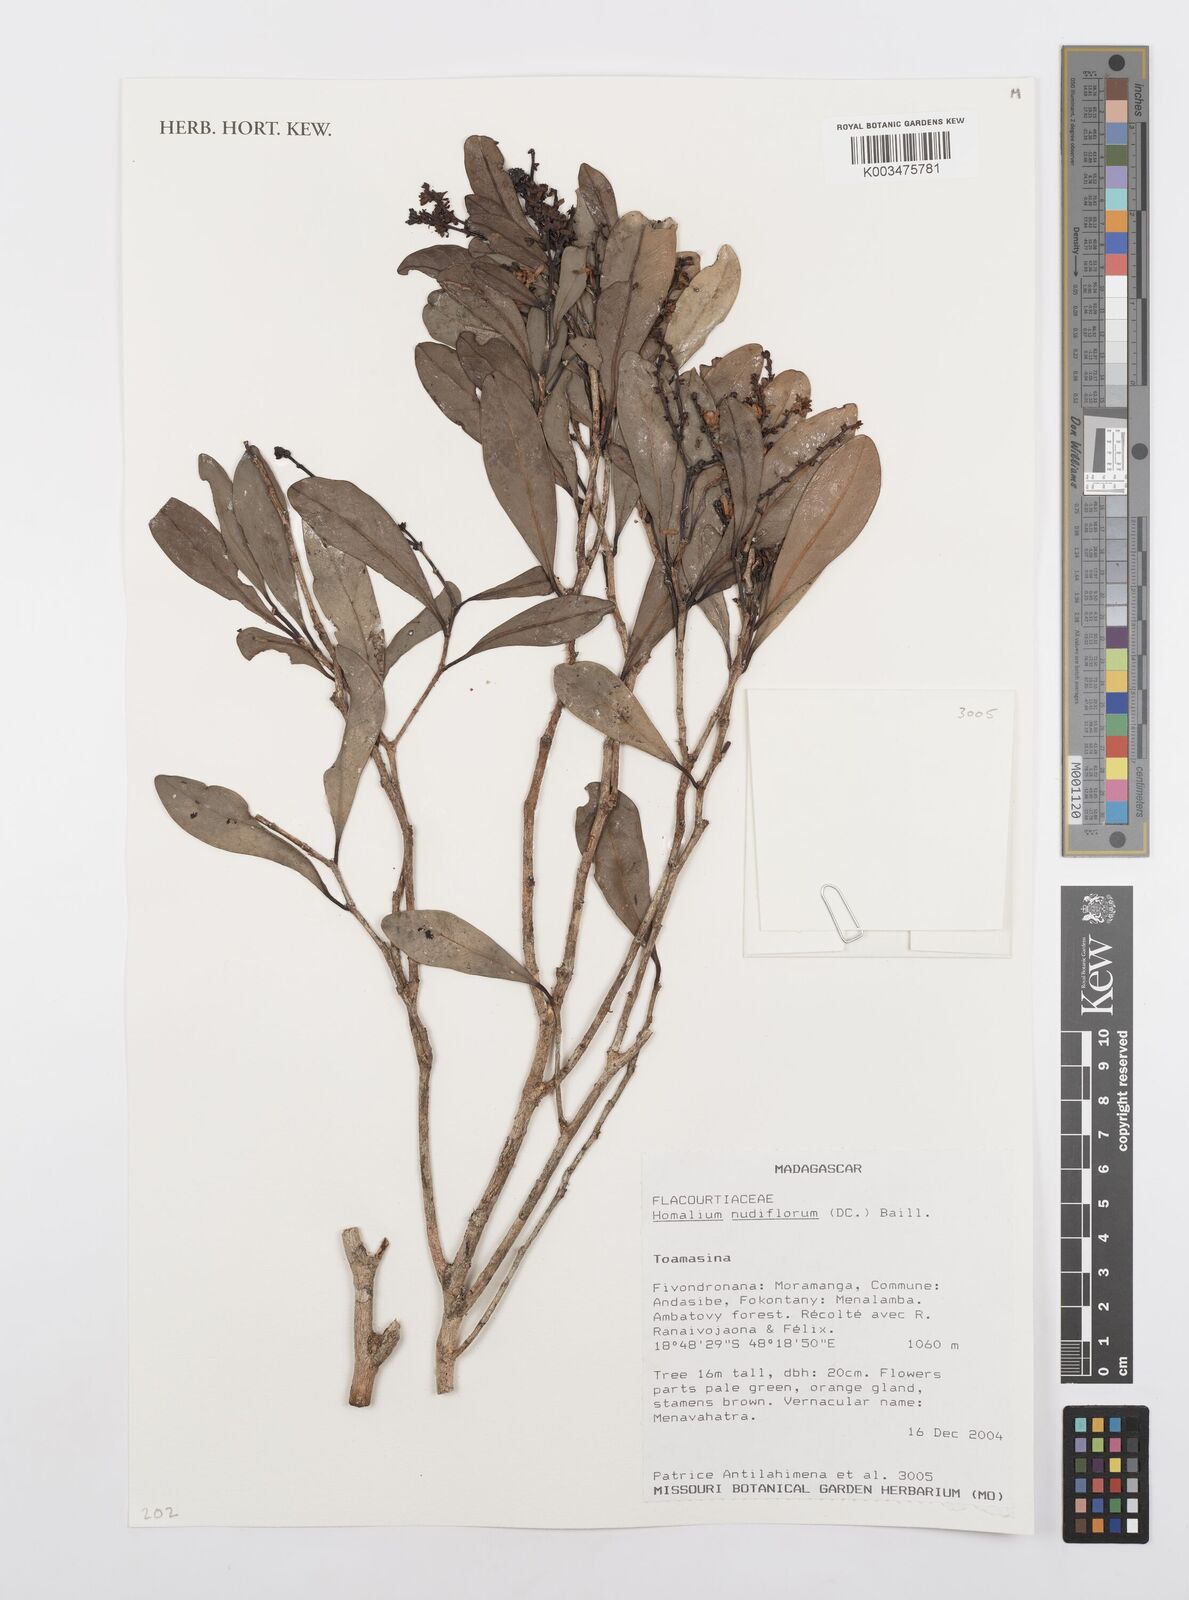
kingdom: Plantae
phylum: Tracheophyta
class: Magnoliopsida
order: Malpighiales
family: Salicaceae
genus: Homalium
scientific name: Homalium nudiflorum
